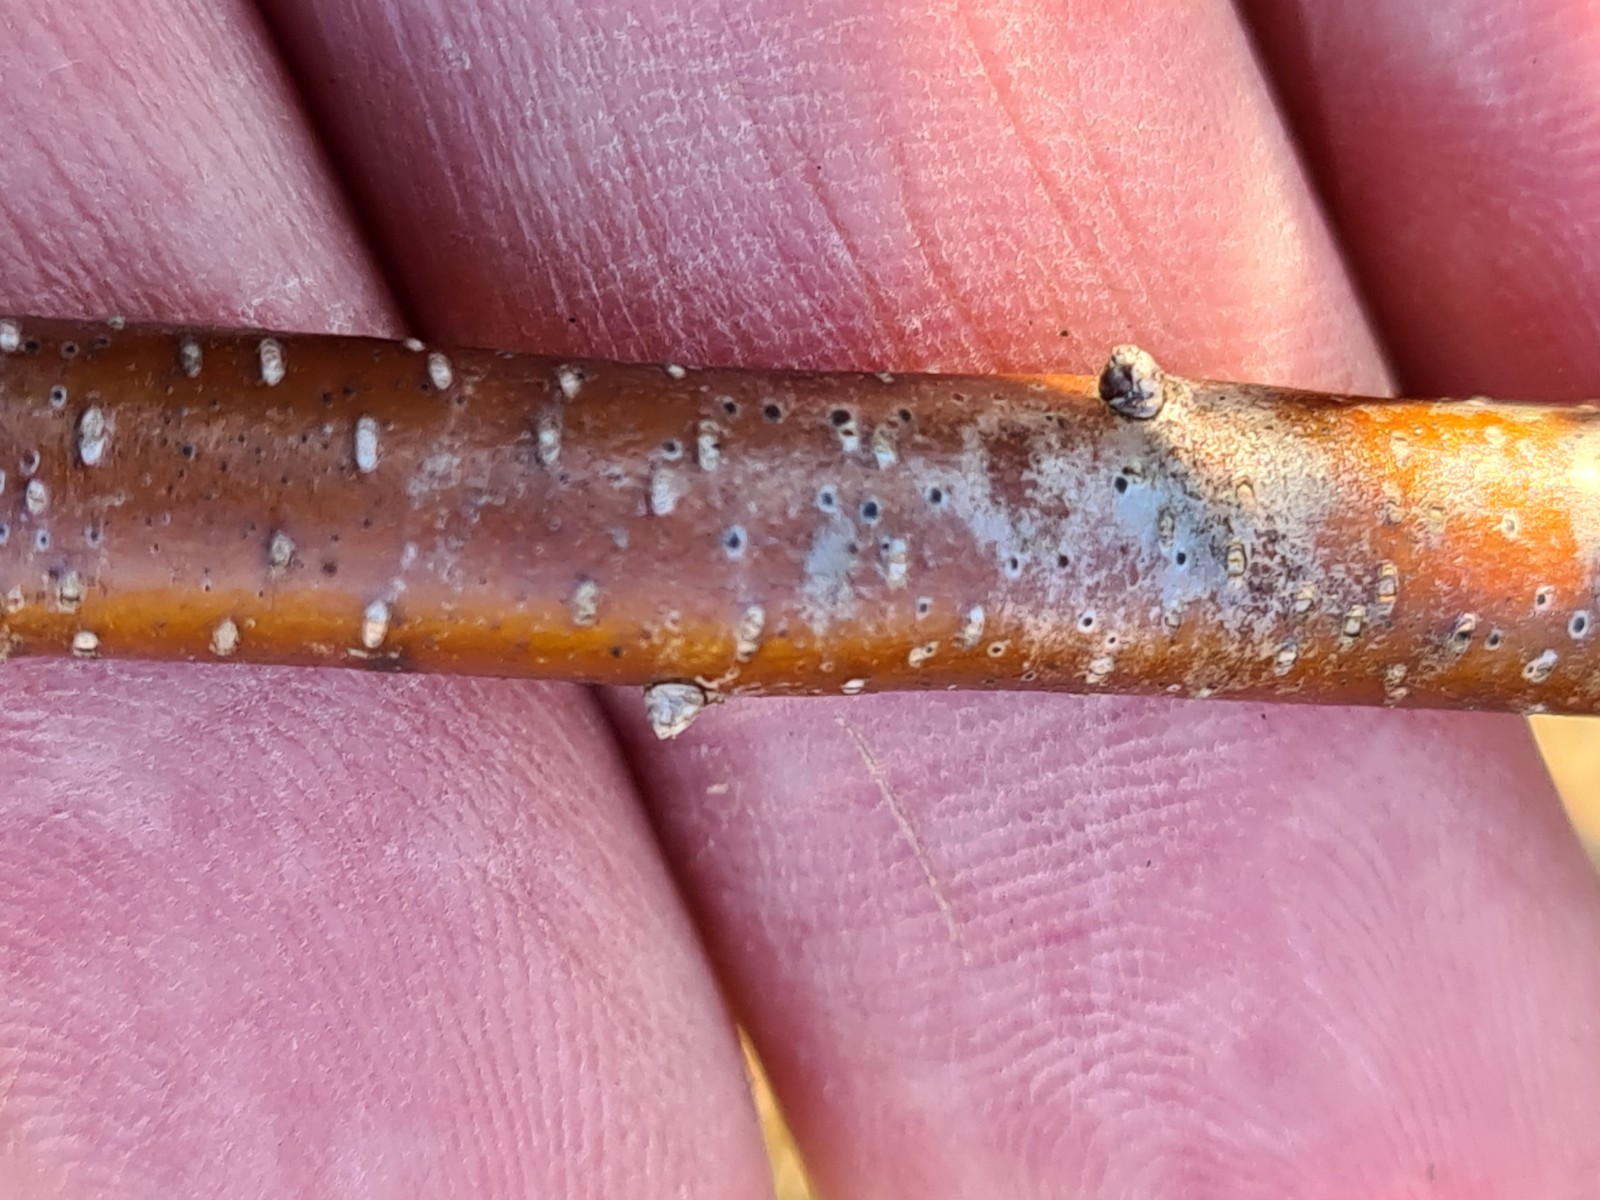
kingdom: Fungi
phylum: Ascomycota
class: Dothideomycetes
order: Dothideales
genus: Mycoglaena
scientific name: Mycoglaena myricae
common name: liden porsprik
